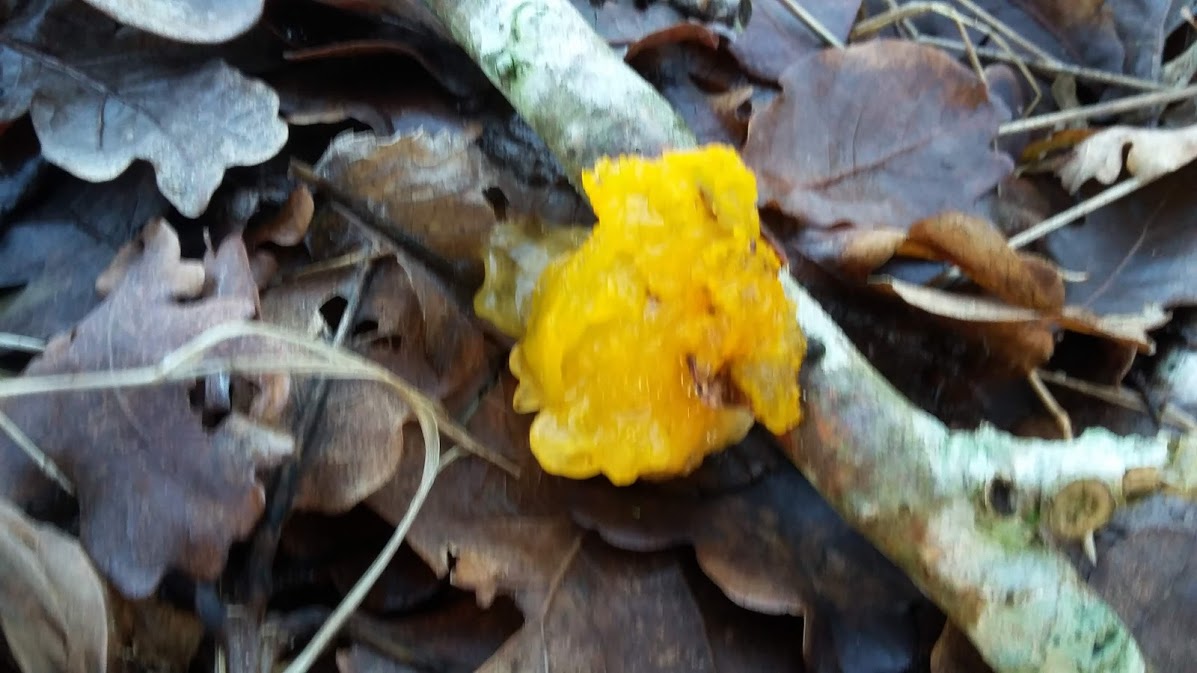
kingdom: Fungi
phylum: Basidiomycota
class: Tremellomycetes
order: Tremellales
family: Tremellaceae
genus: Tremella
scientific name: Tremella mesenterica
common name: gul bævresvamp
